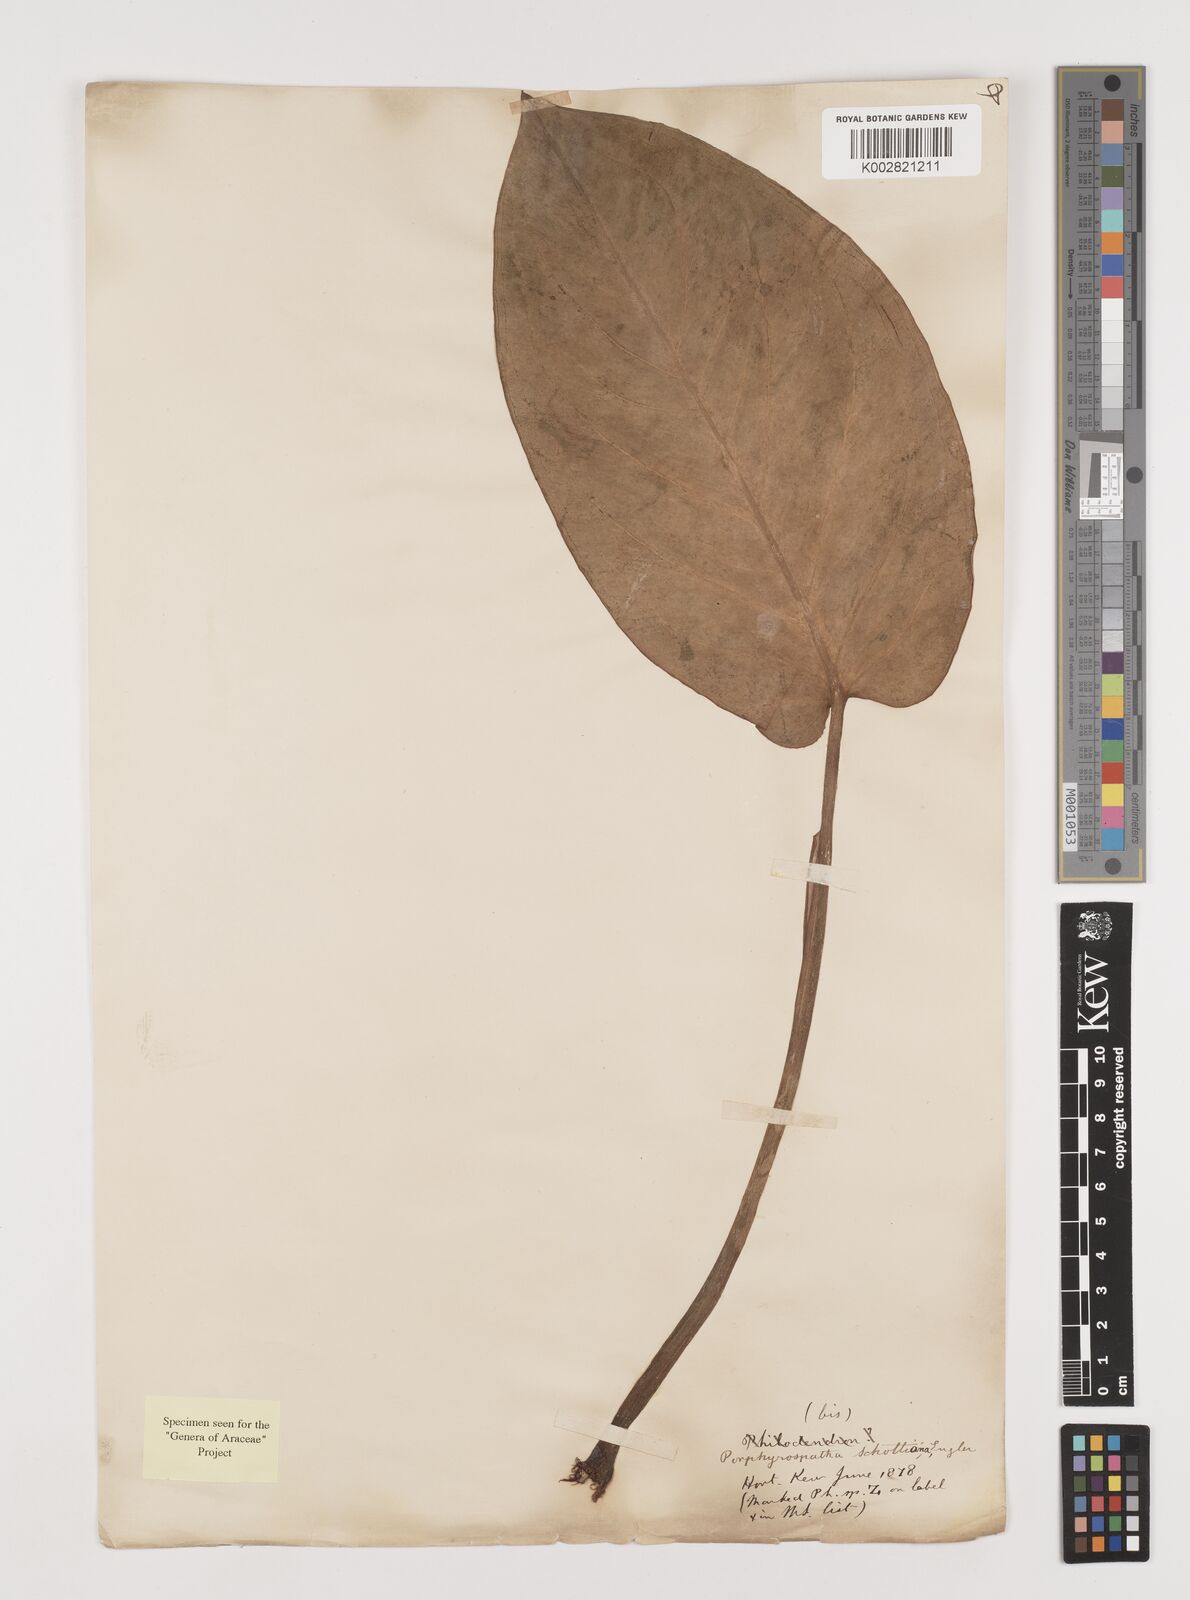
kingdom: Plantae
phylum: Tracheophyta
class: Liliopsida
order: Alismatales
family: Araceae
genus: Syngonium
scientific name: Syngonium schottianum
